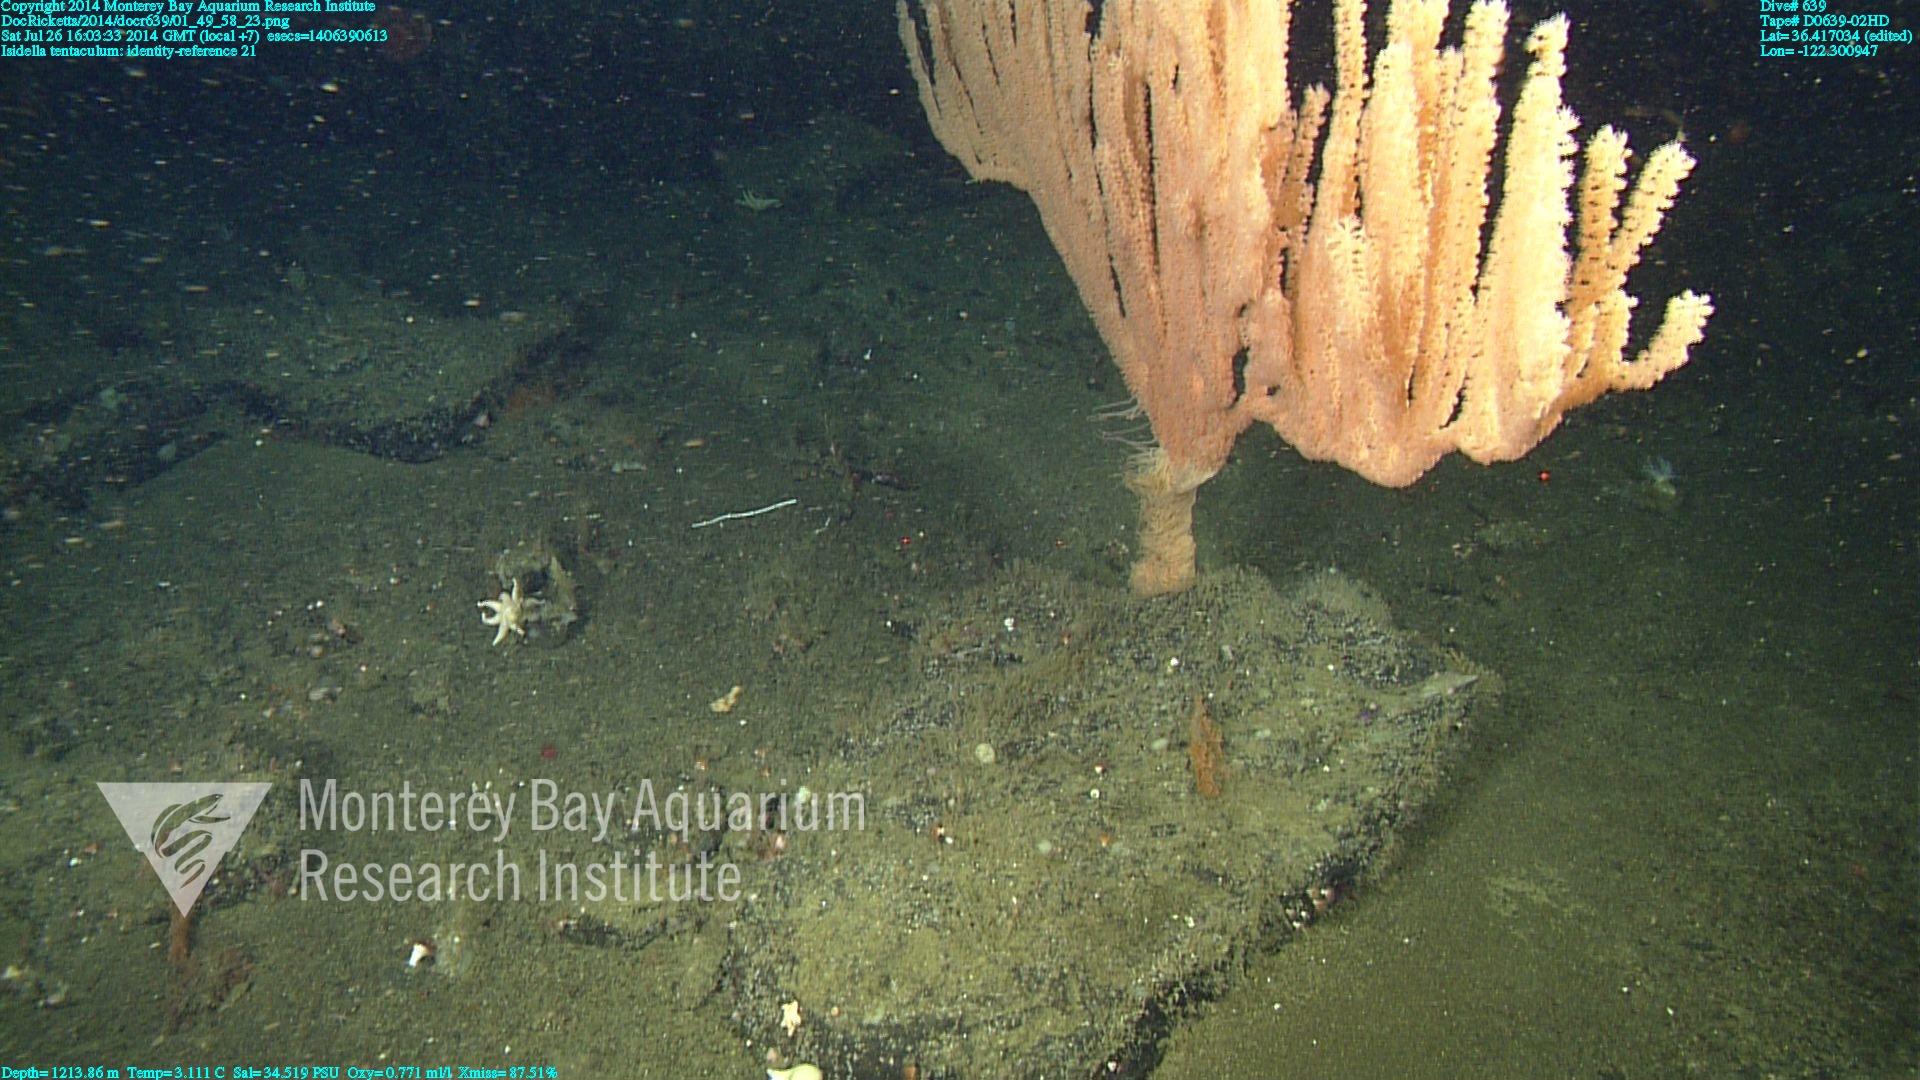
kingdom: Animalia
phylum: Cnidaria
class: Anthozoa
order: Scleralcyonacea
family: Keratoisididae
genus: Isidella
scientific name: Isidella tentaculum
